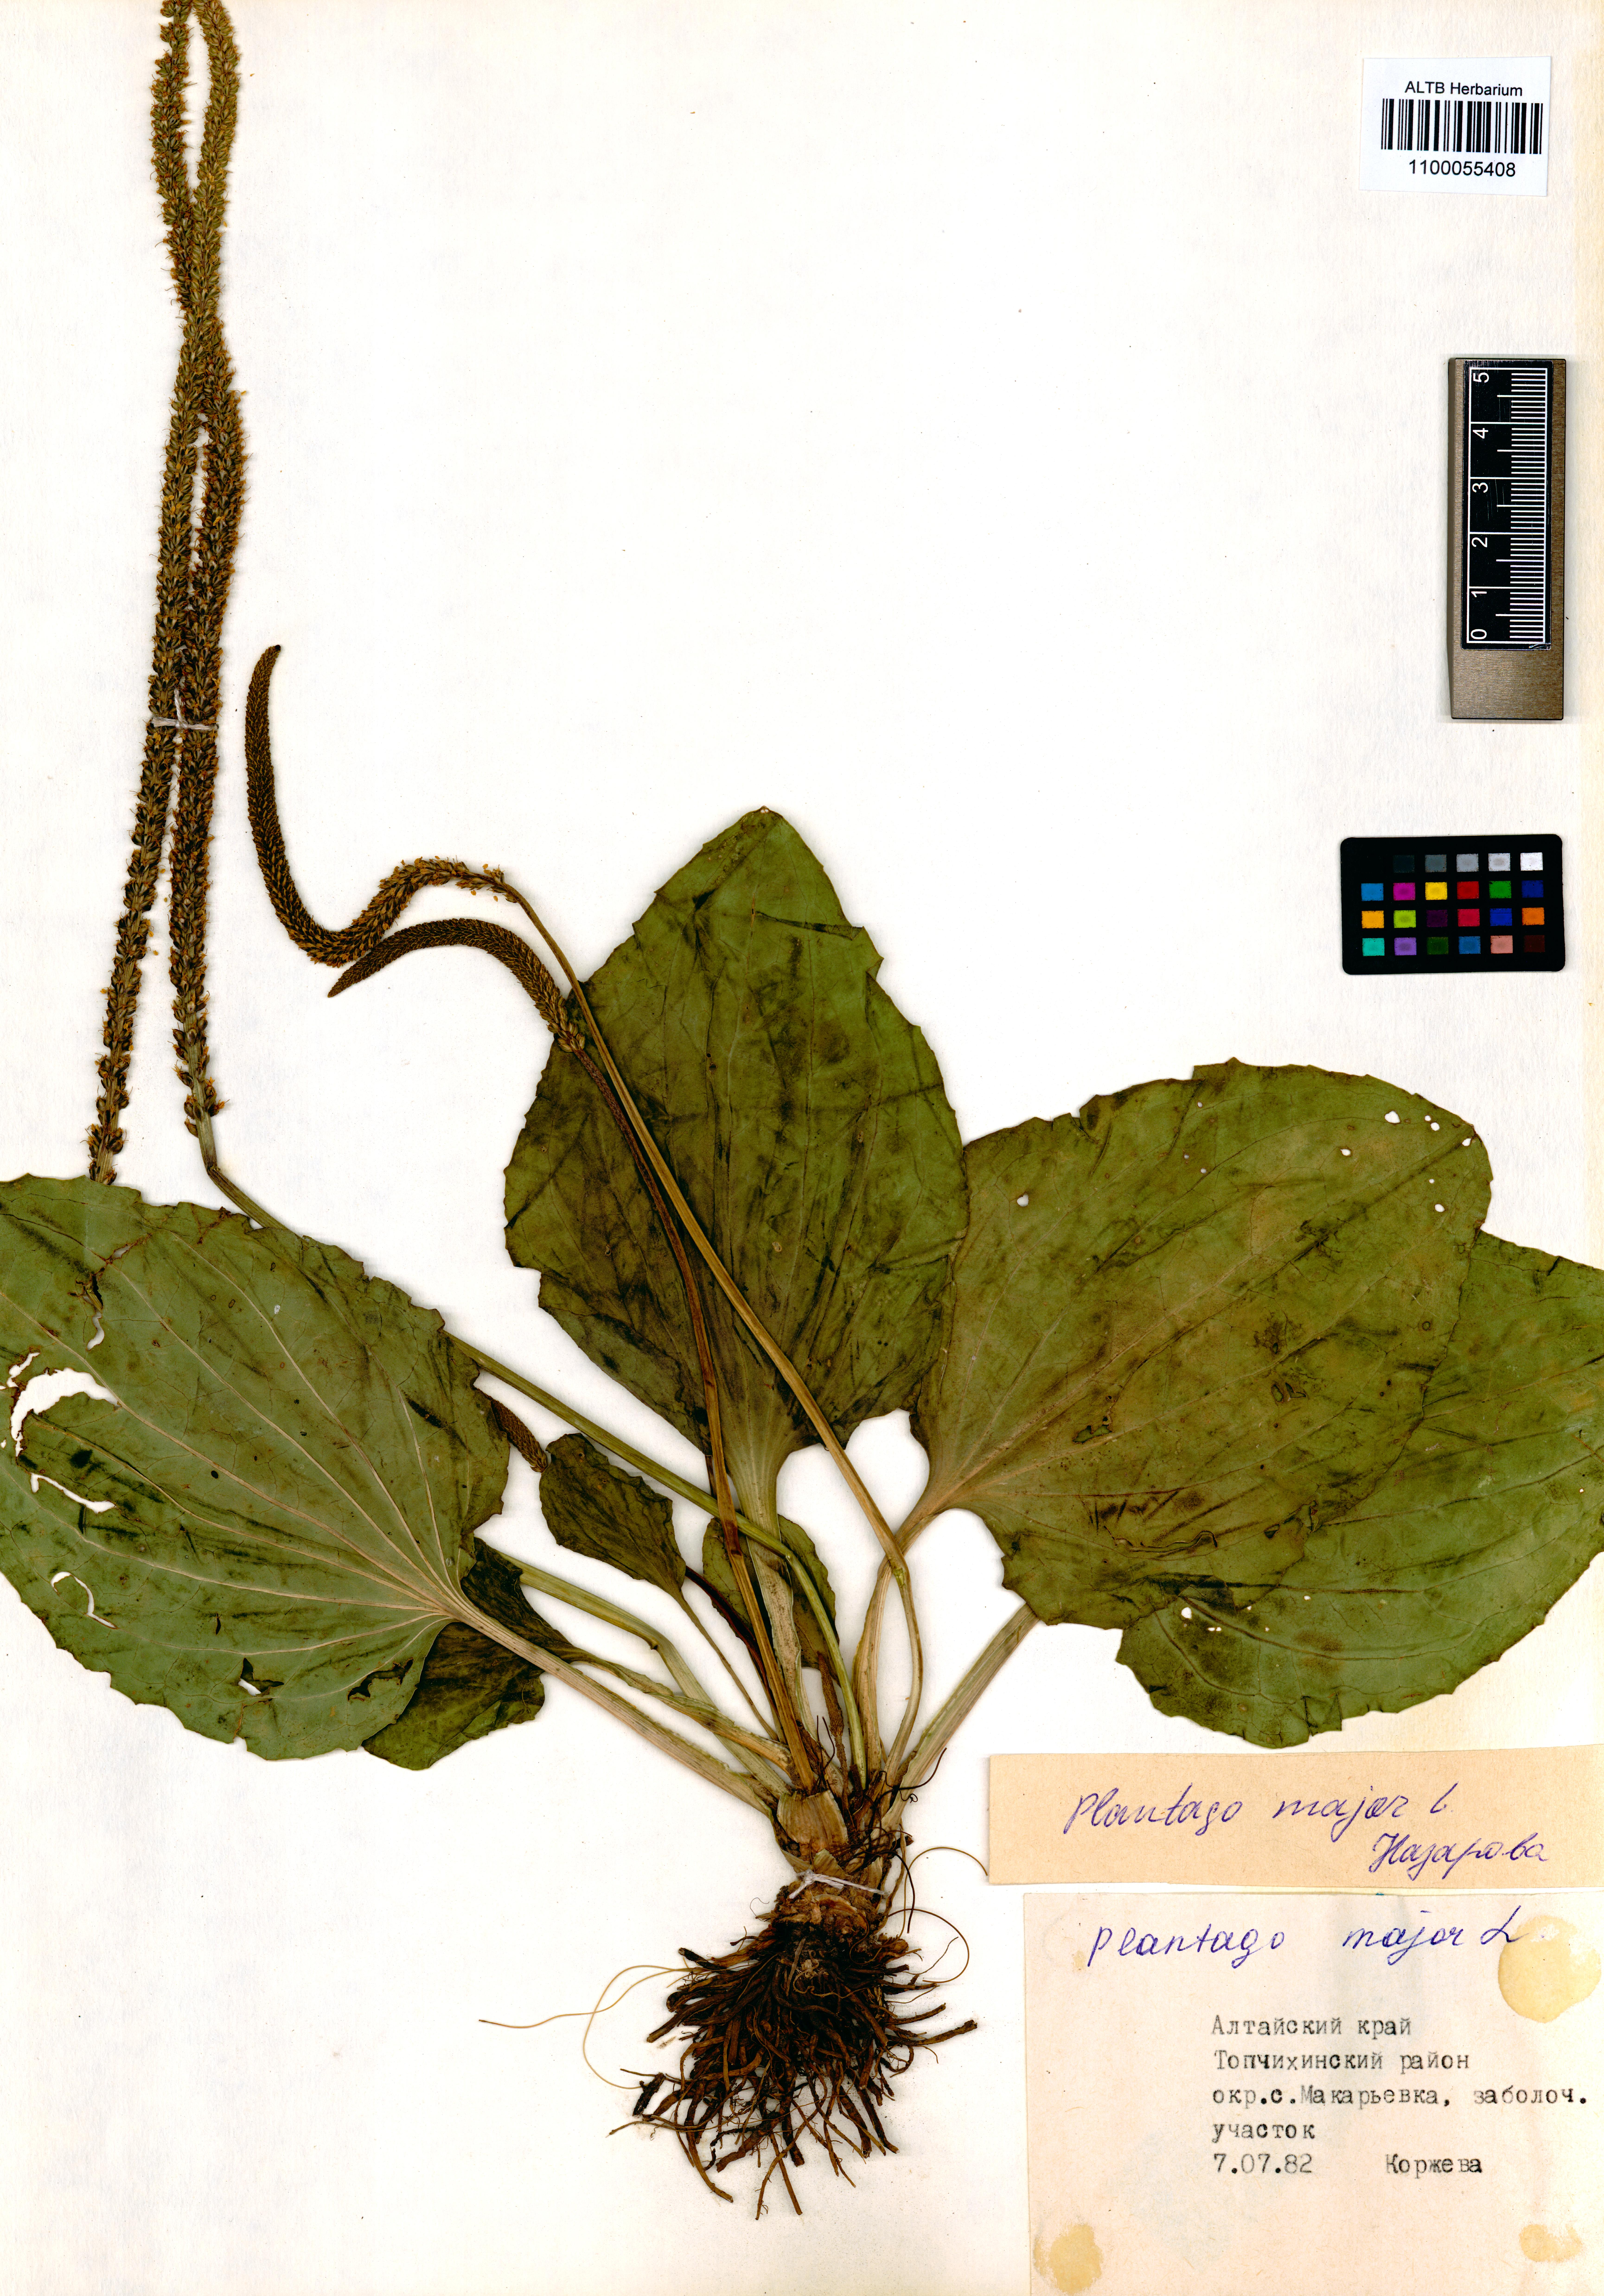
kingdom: Plantae
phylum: Tracheophyta
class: Magnoliopsida
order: Lamiales
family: Plantaginaceae
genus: Plantago
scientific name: Plantago major
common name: Common plantain
